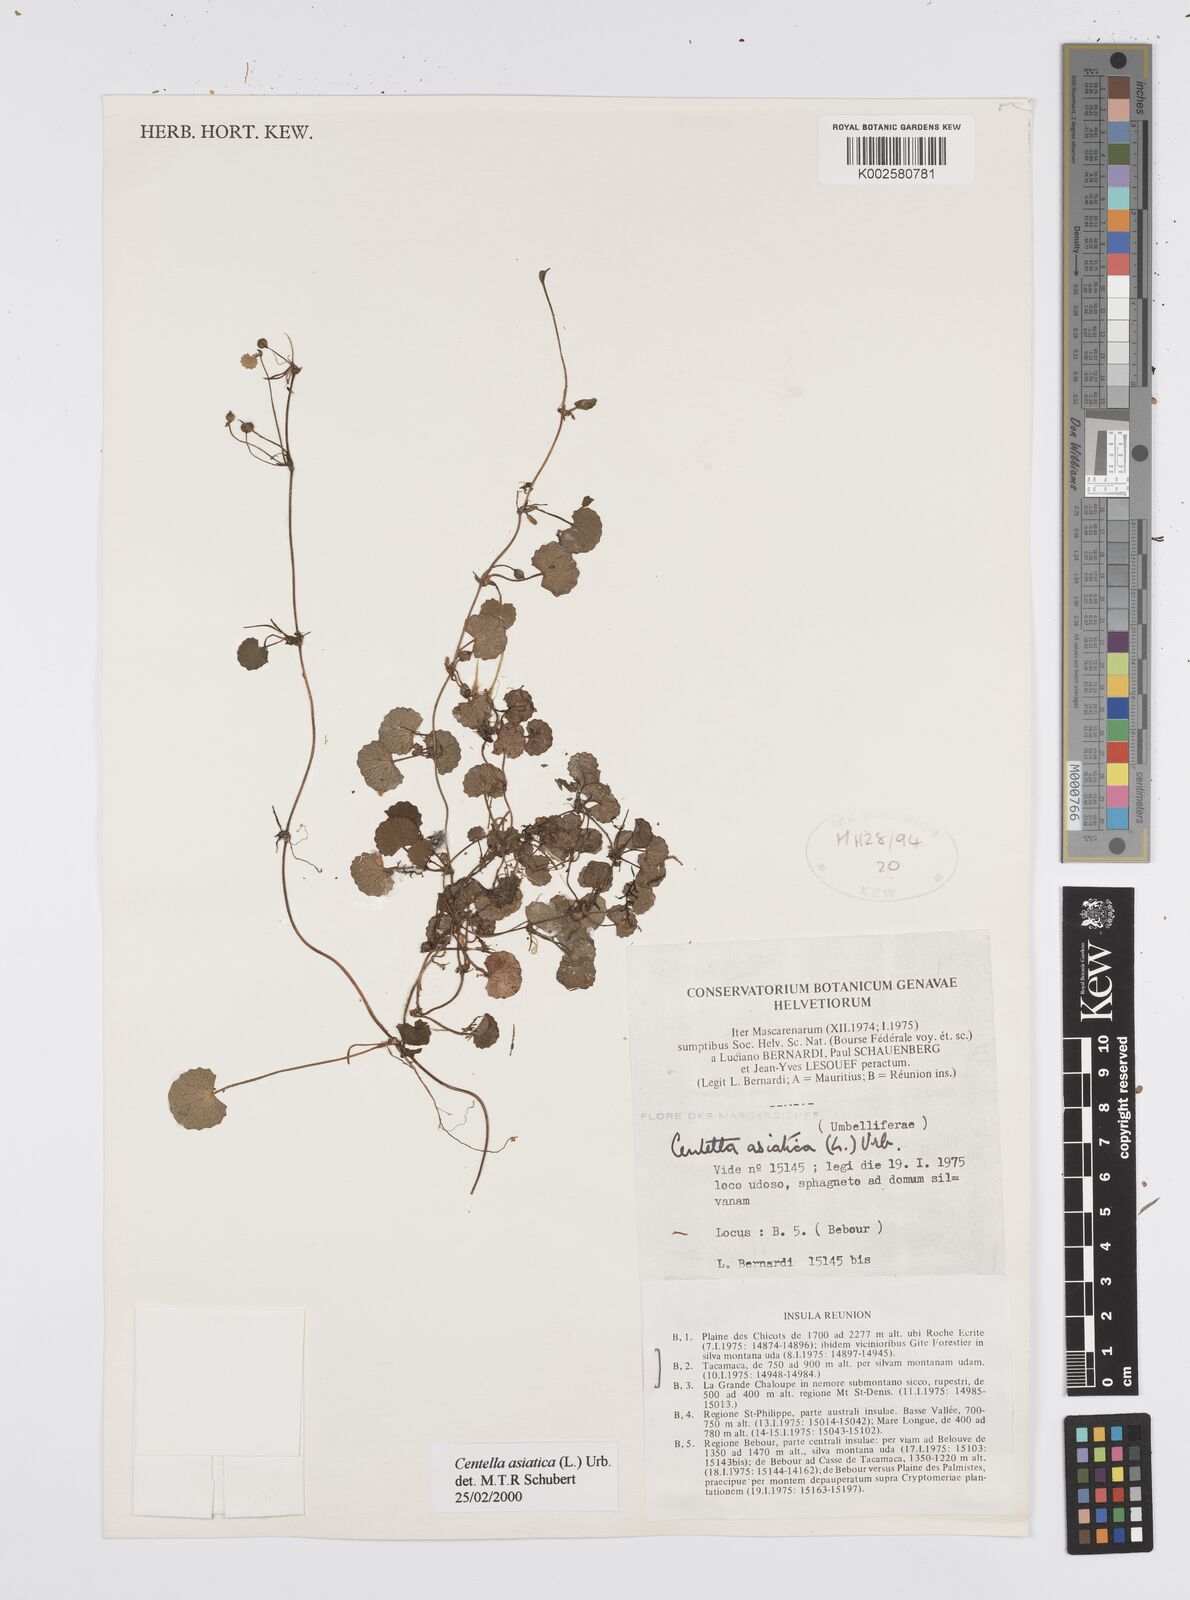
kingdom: Plantae
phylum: Tracheophyta
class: Magnoliopsida
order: Apiales
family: Apiaceae
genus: Centella
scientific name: Centella asiatica
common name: Spadeleaf
